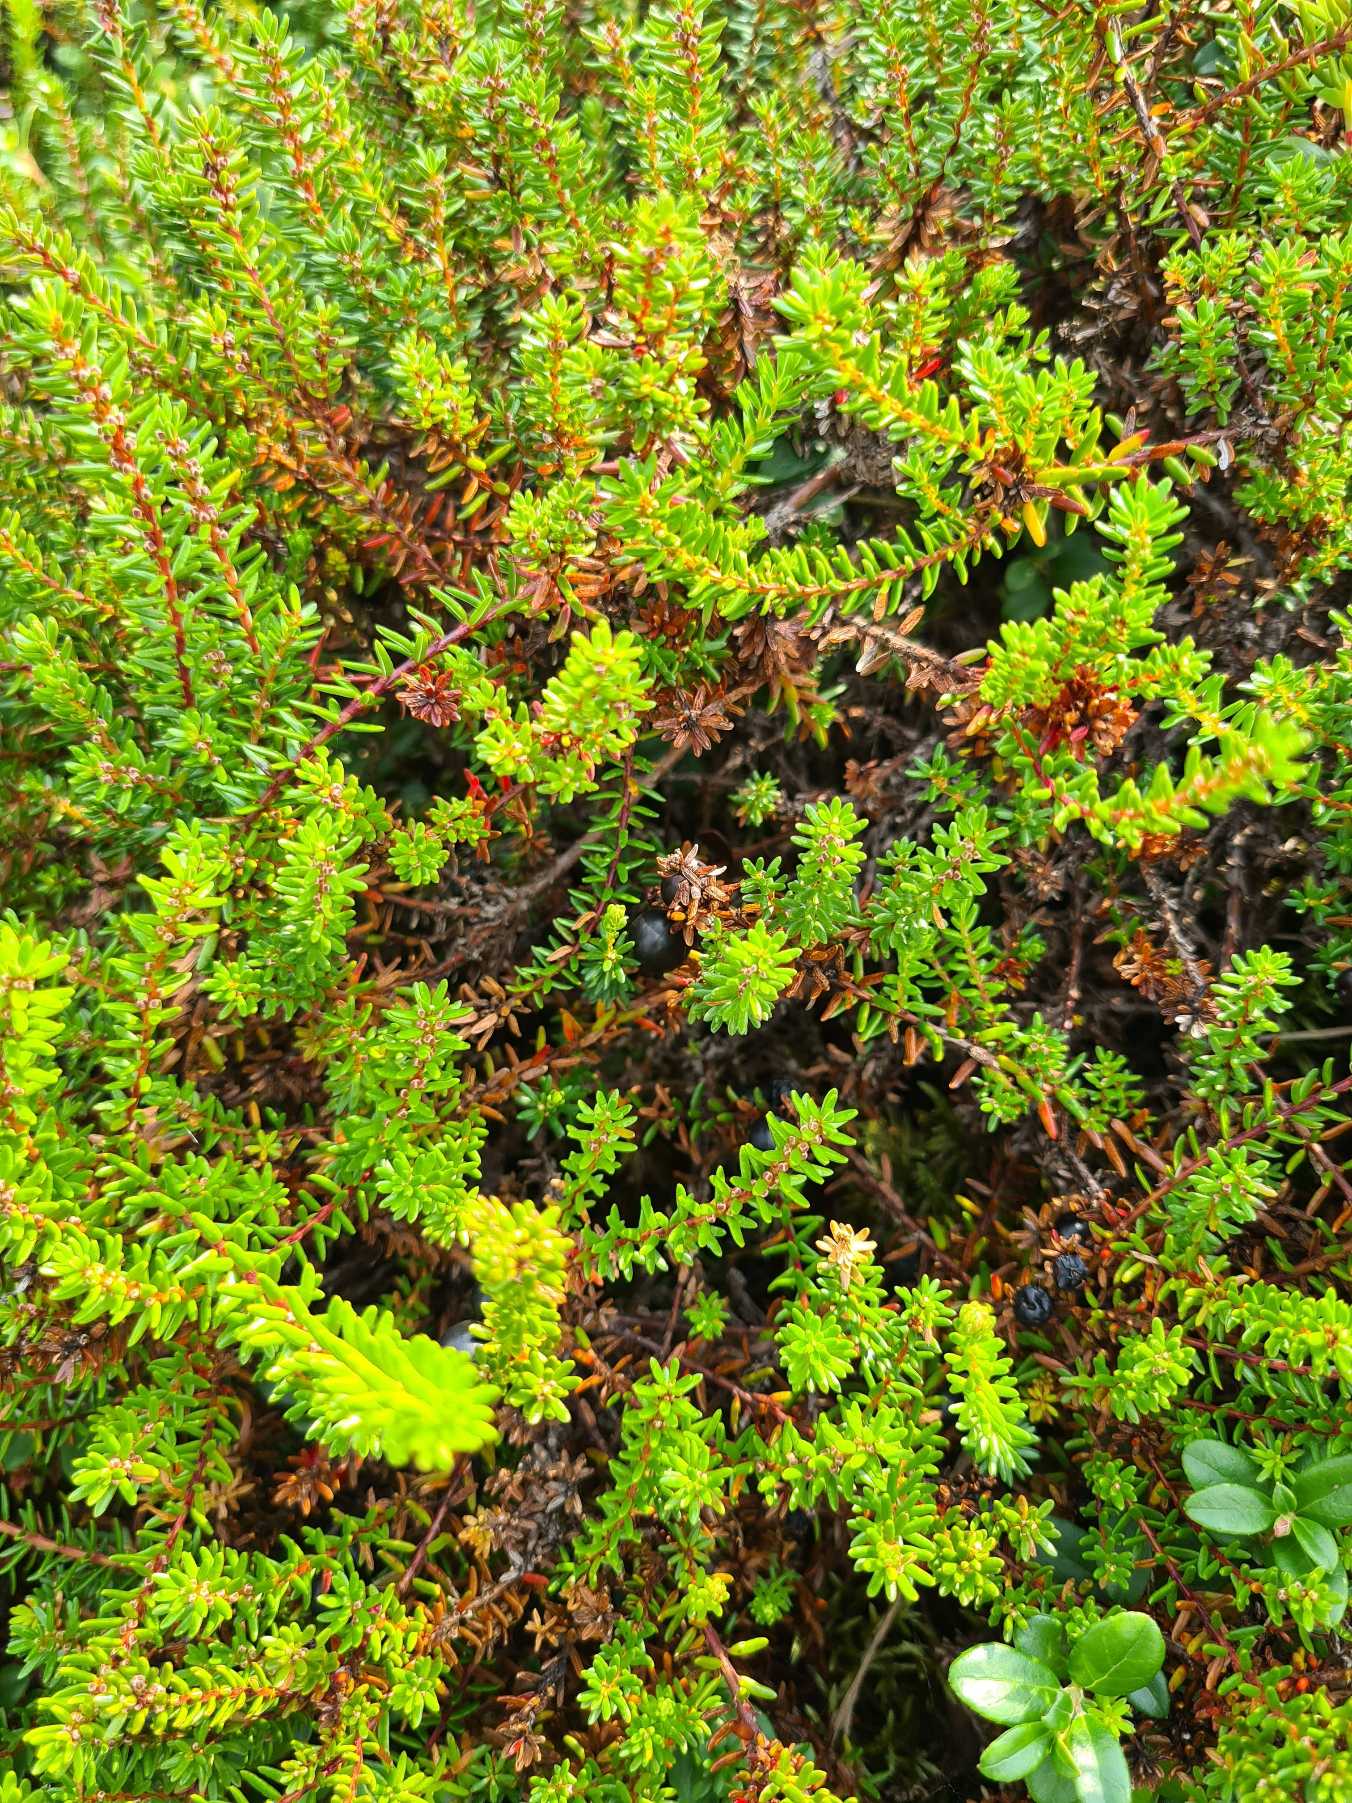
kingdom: Plantae
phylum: Tracheophyta
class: Magnoliopsida
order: Ericales
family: Ericaceae
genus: Empetrum
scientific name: Empetrum nigrum
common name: Revling
